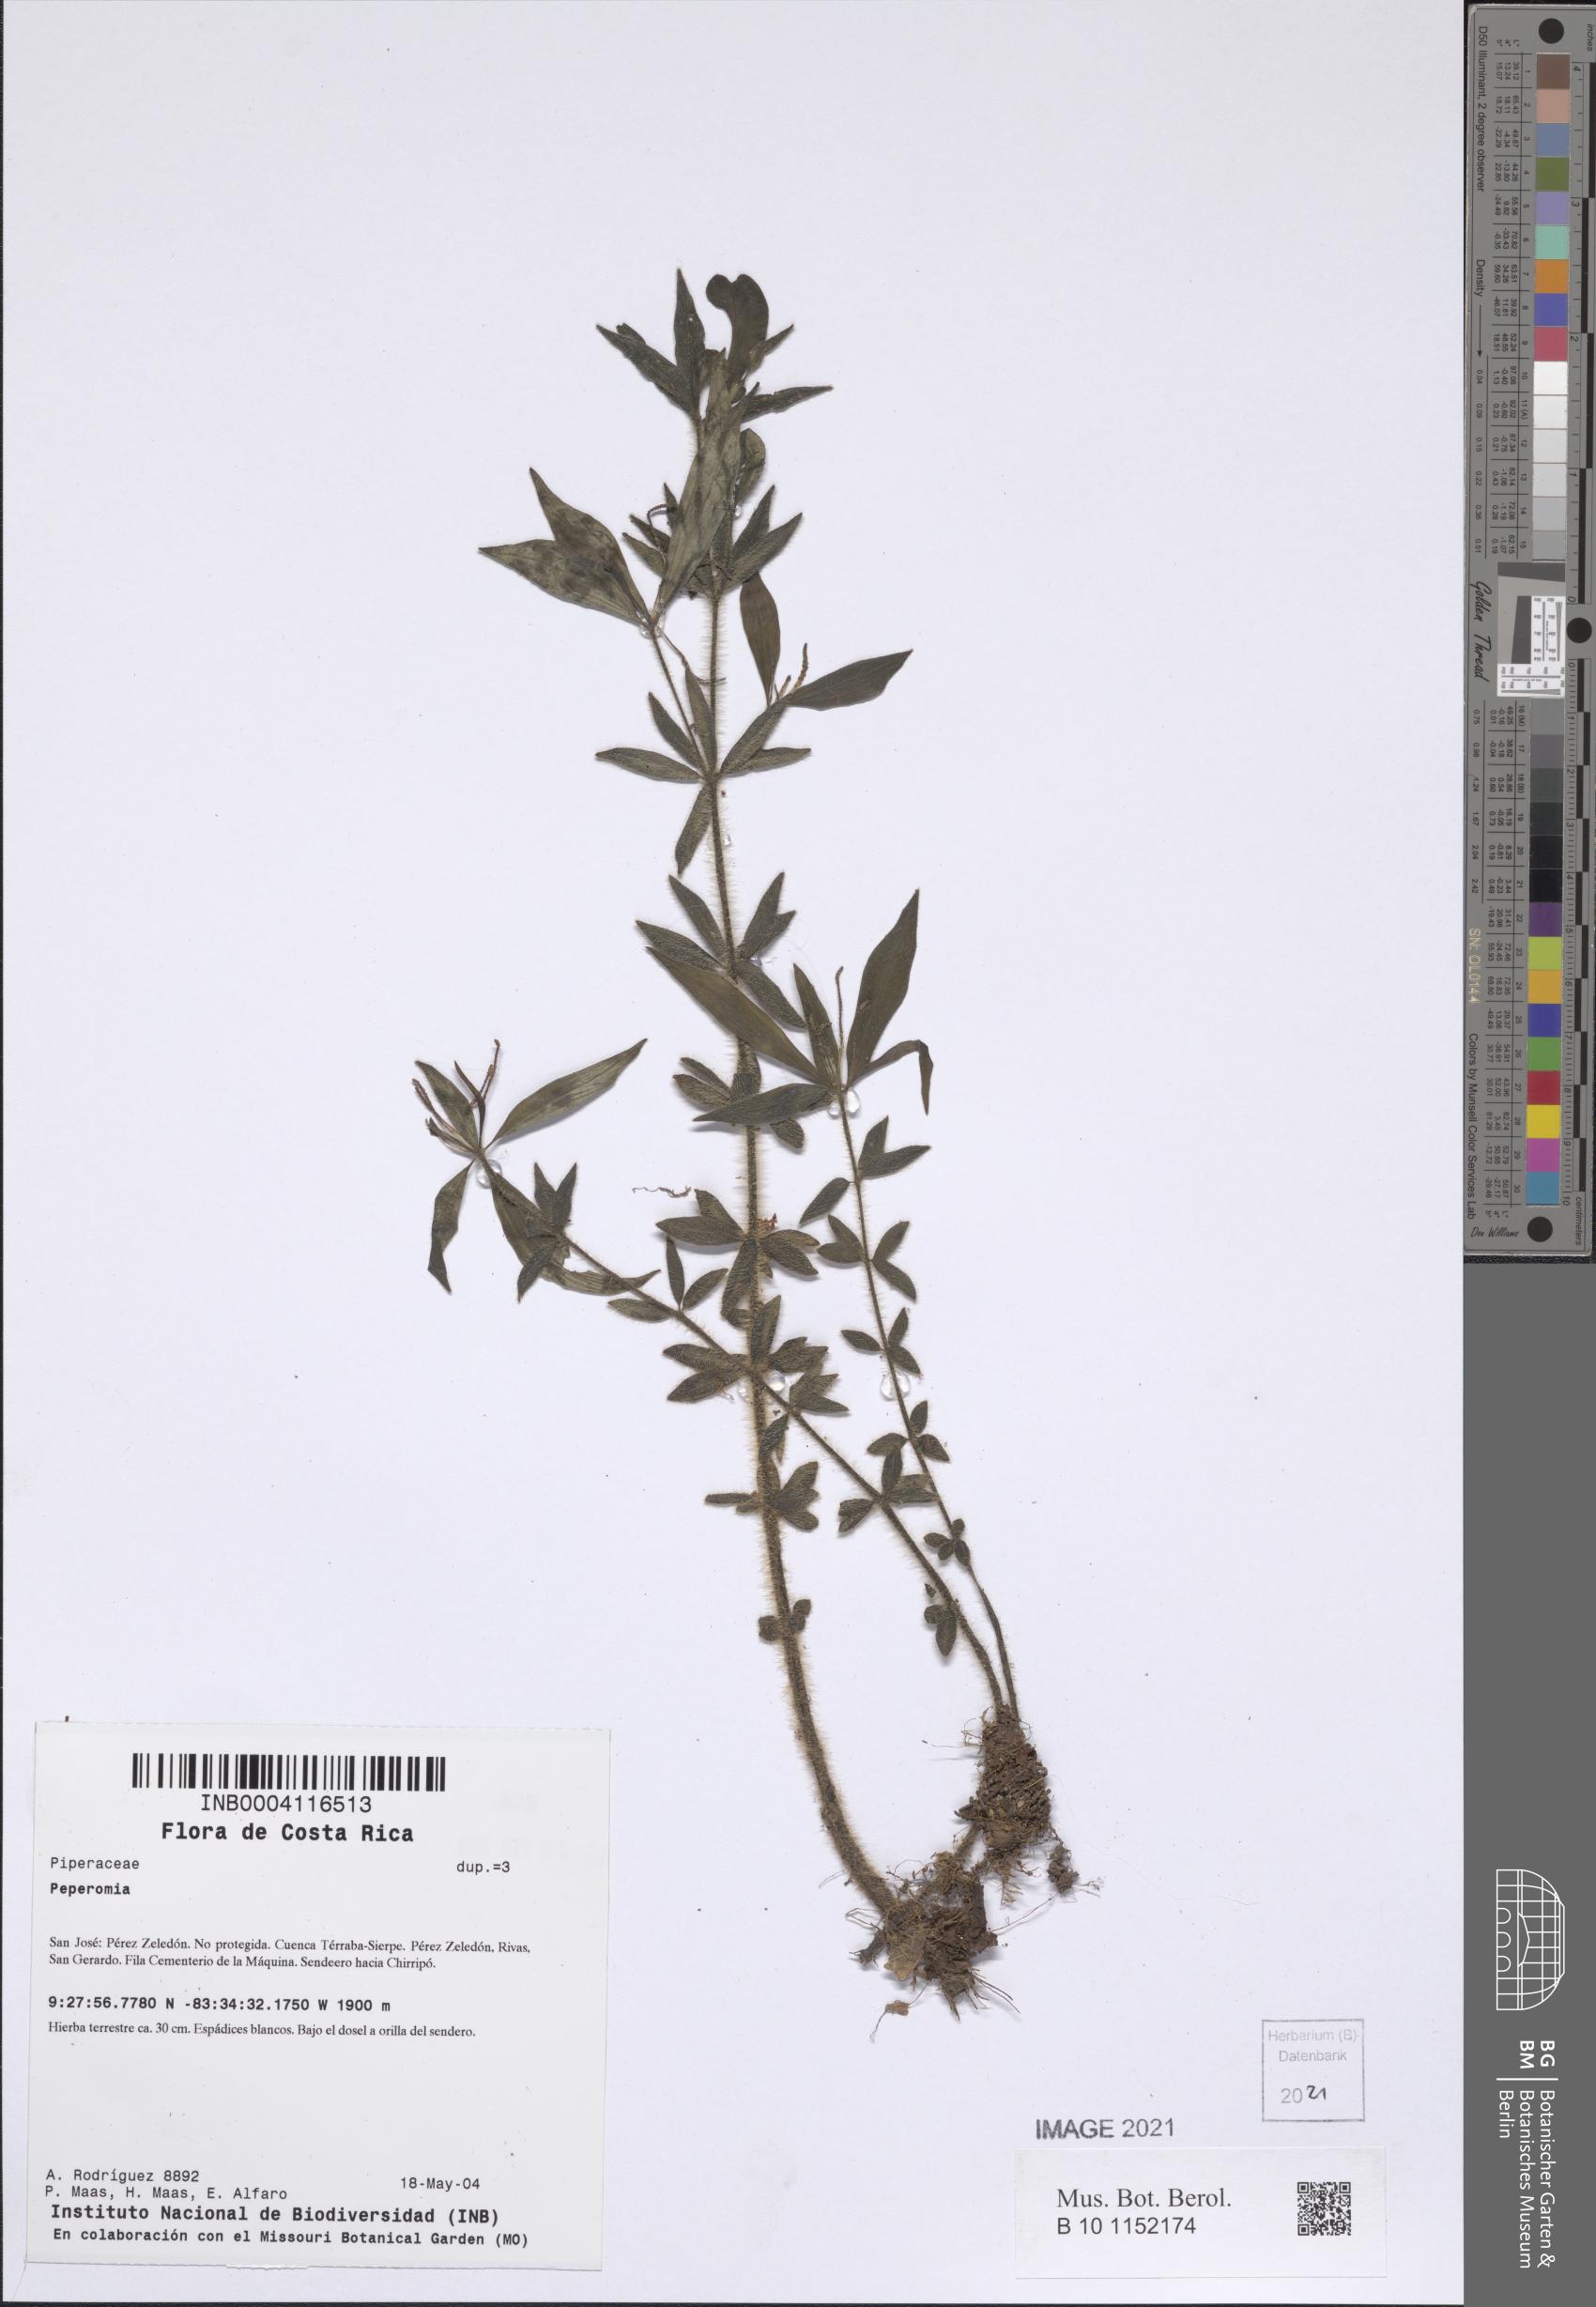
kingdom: Plantae
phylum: Tracheophyta
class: Magnoliopsida
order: Piperales
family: Piperaceae
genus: Peperomia
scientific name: Peperomia longisetosa
